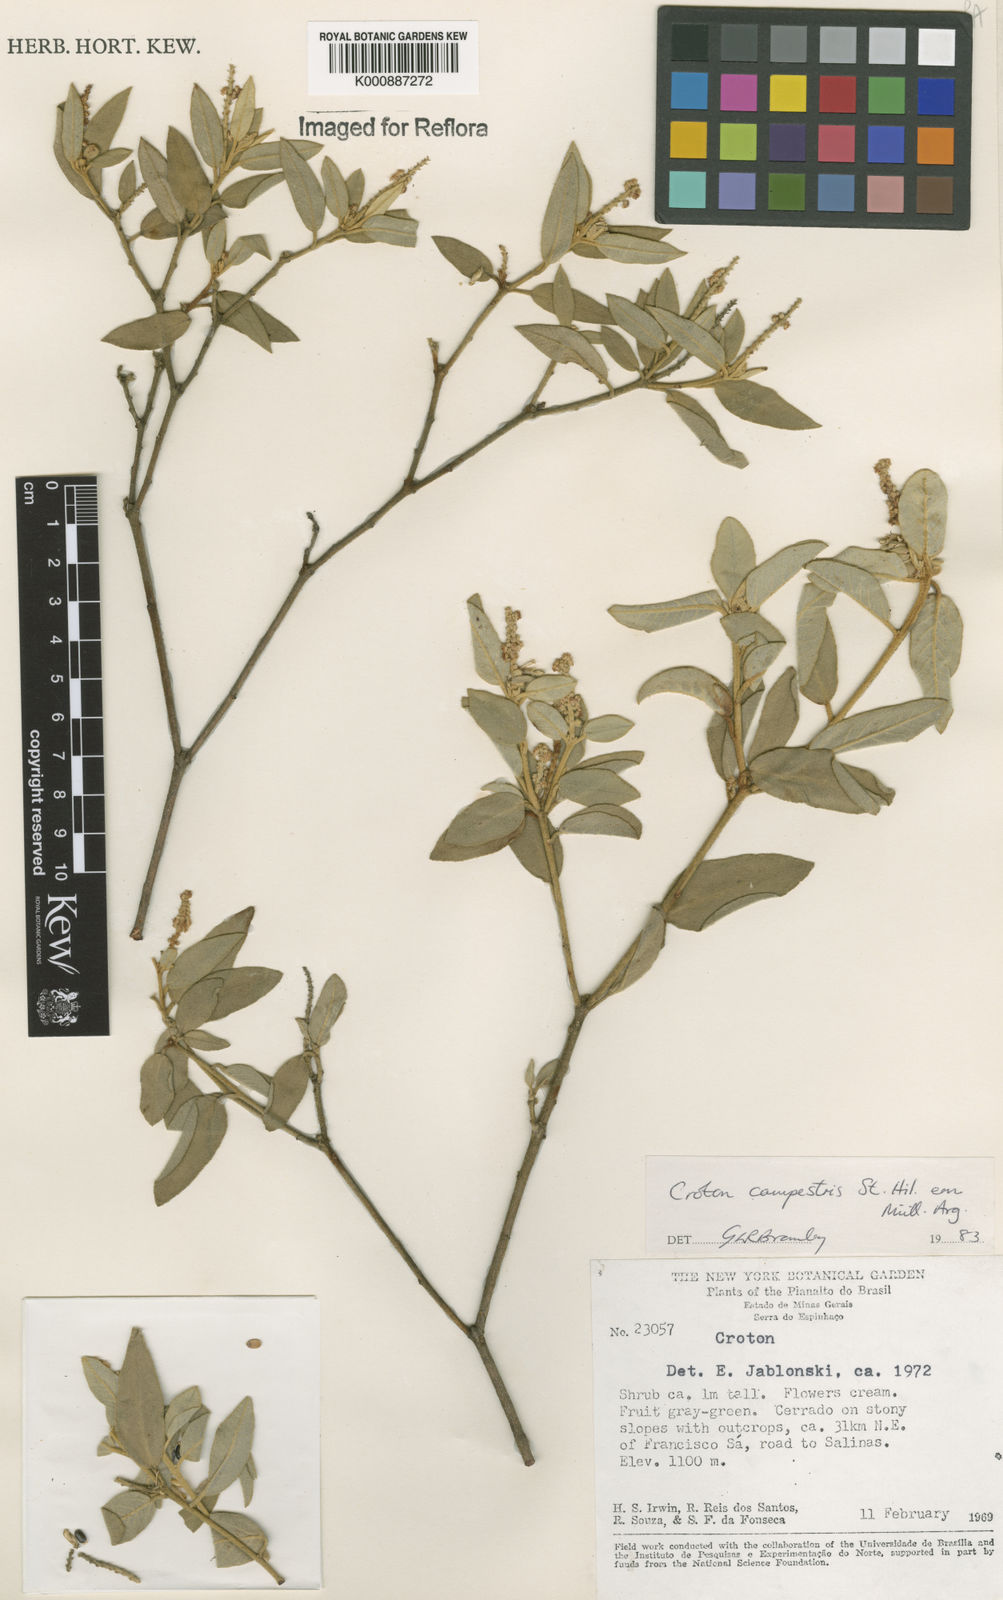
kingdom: Plantae
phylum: Tracheophyta
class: Magnoliopsida
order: Malpighiales
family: Euphorbiaceae
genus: Croton
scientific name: Croton campestris
